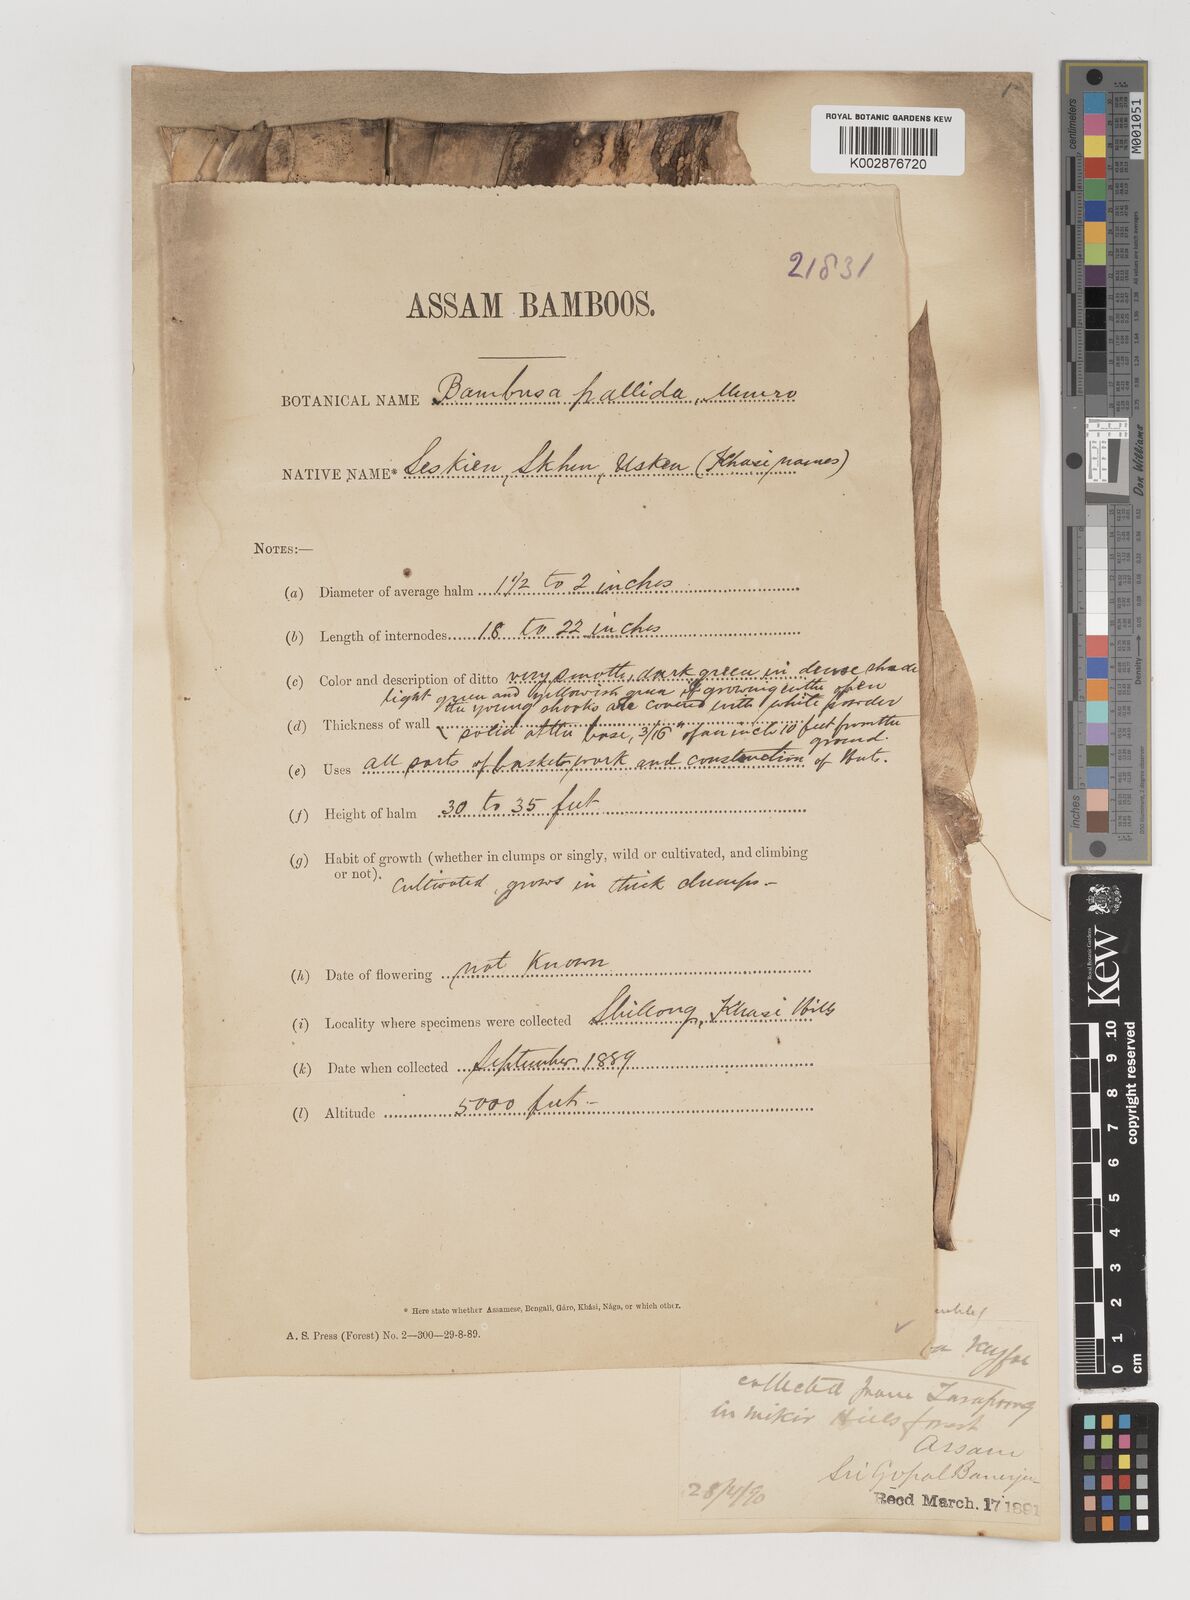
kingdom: Plantae
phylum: Tracheophyta
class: Liliopsida
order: Poales
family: Poaceae
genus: Bambusa
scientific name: Bambusa pallida
